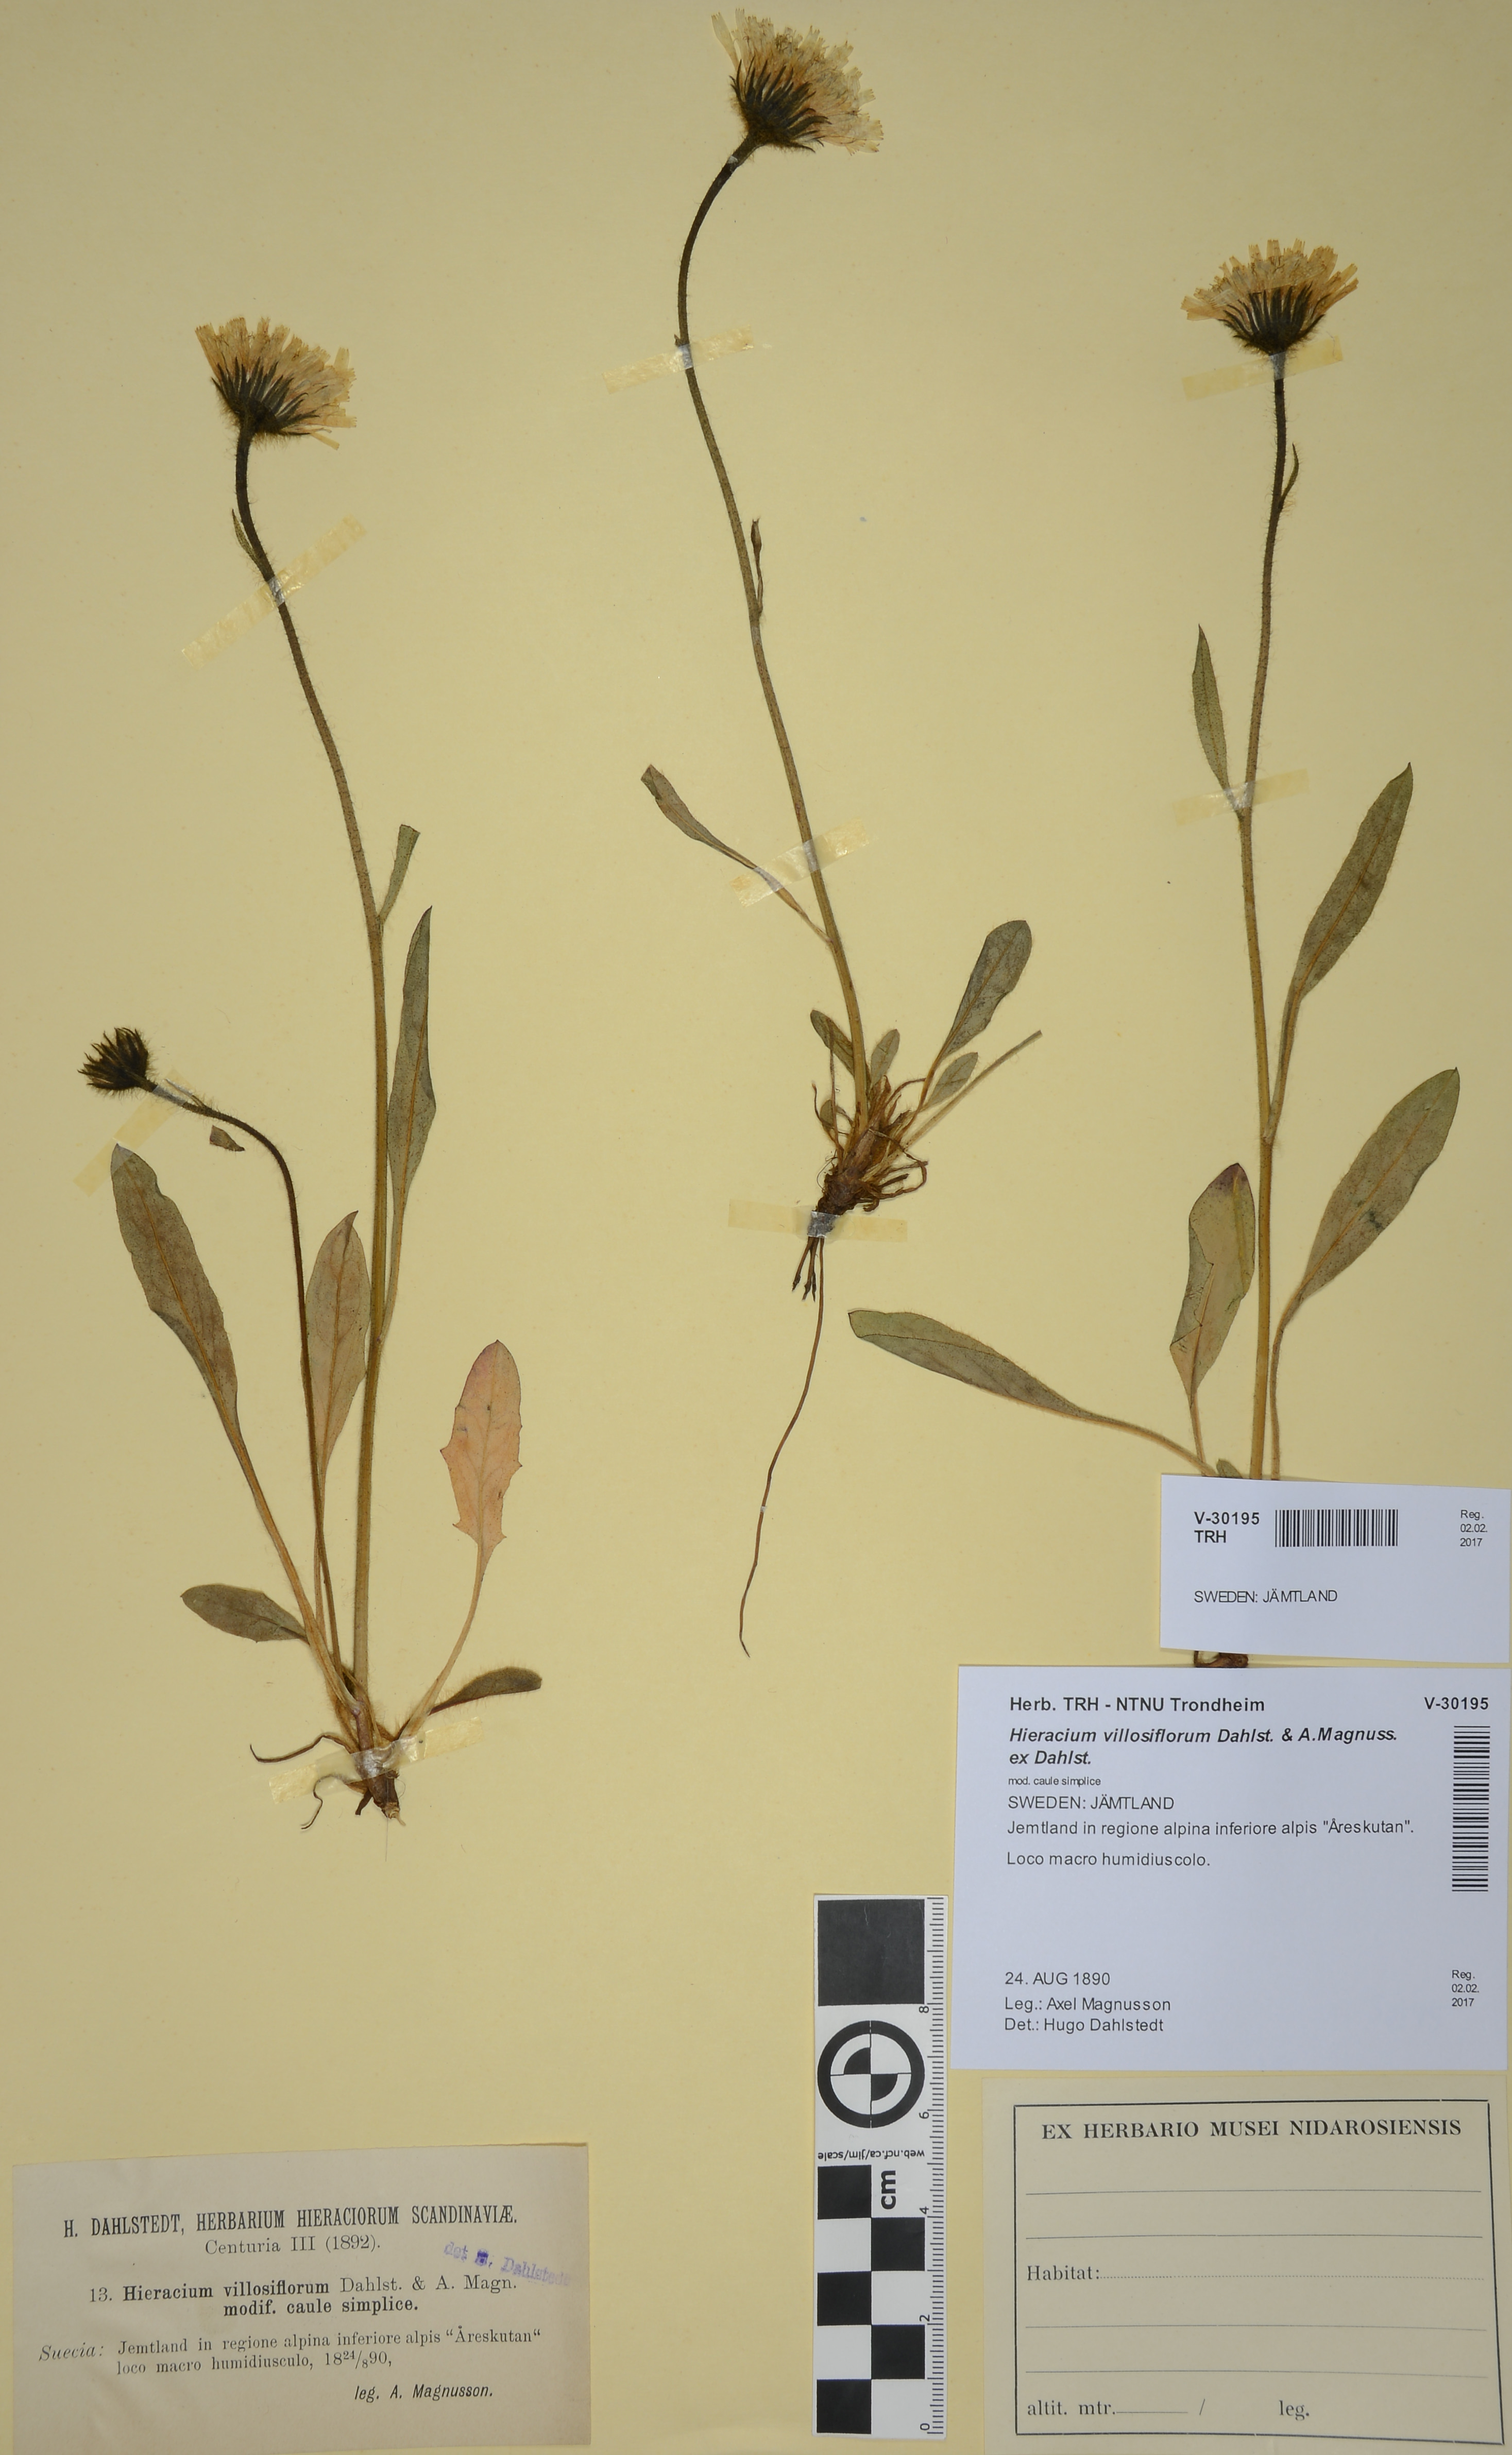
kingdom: Plantae
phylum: Tracheophyta
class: Magnoliopsida
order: Asterales
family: Asteraceae
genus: Hieracium
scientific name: Hieracium alpinum
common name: Alpine hawkweed
